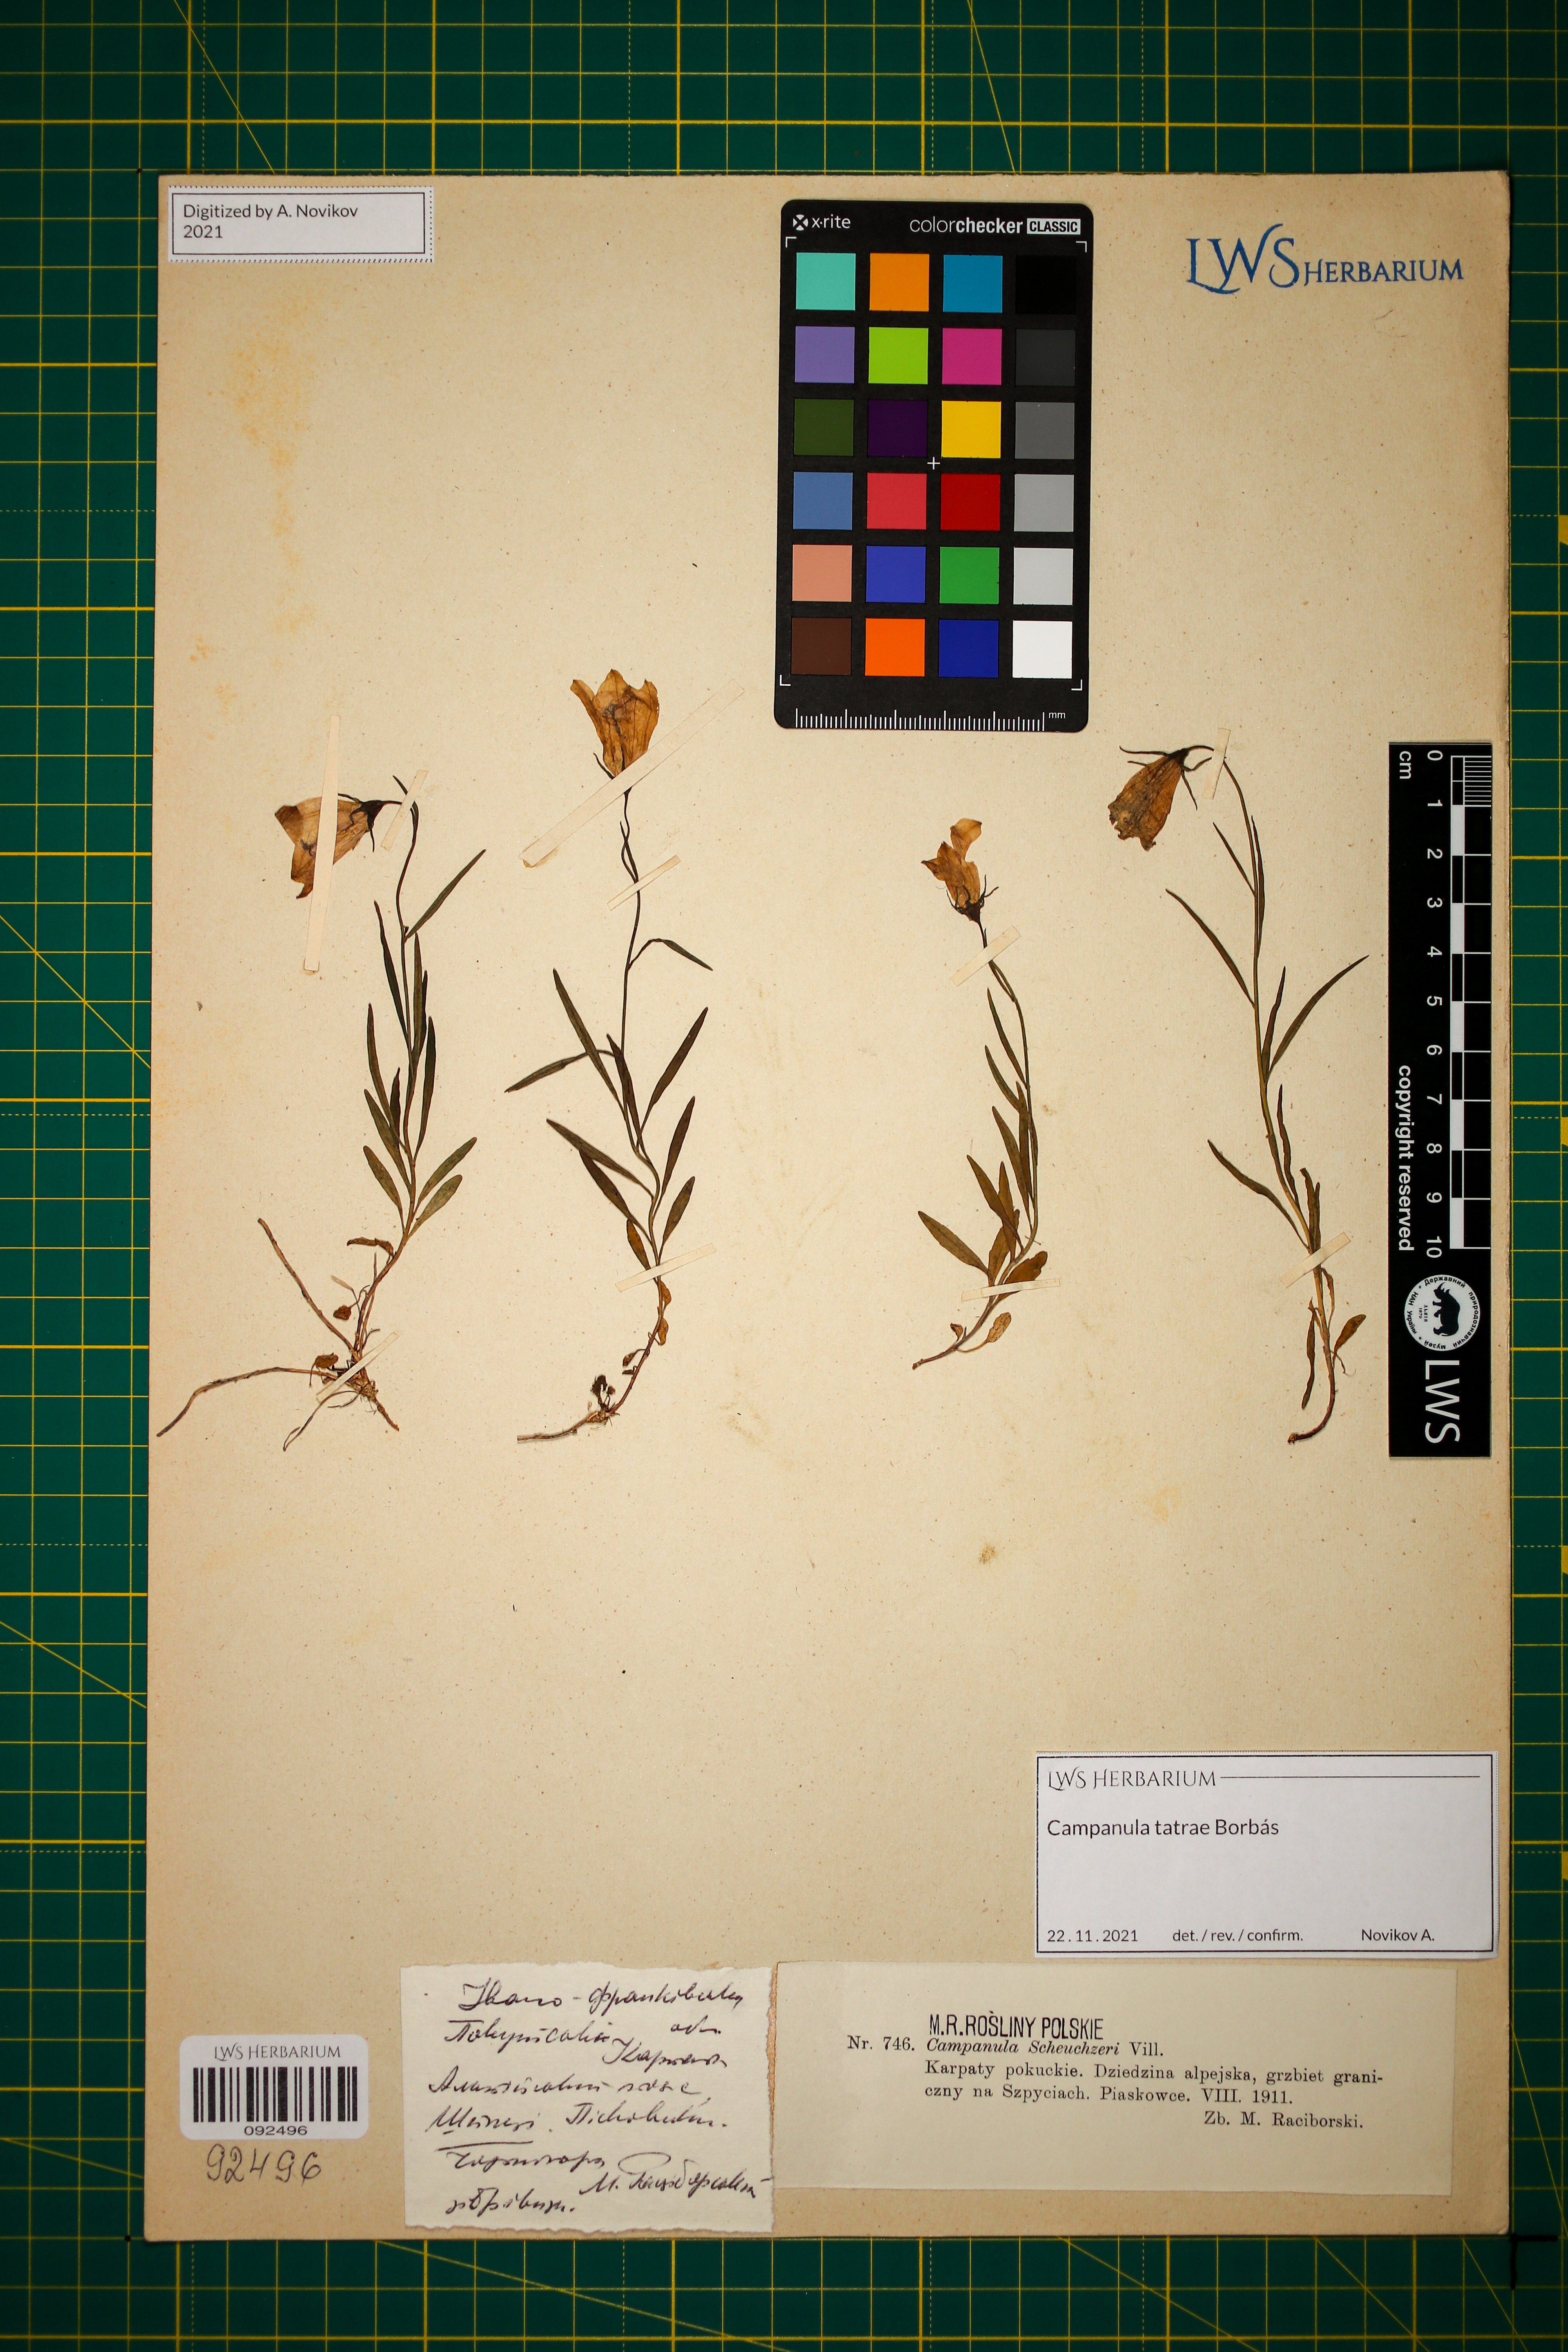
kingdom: Plantae
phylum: Tracheophyta
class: Magnoliopsida
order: Asterales
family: Campanulaceae
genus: Campanula
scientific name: Campanula tatrae
